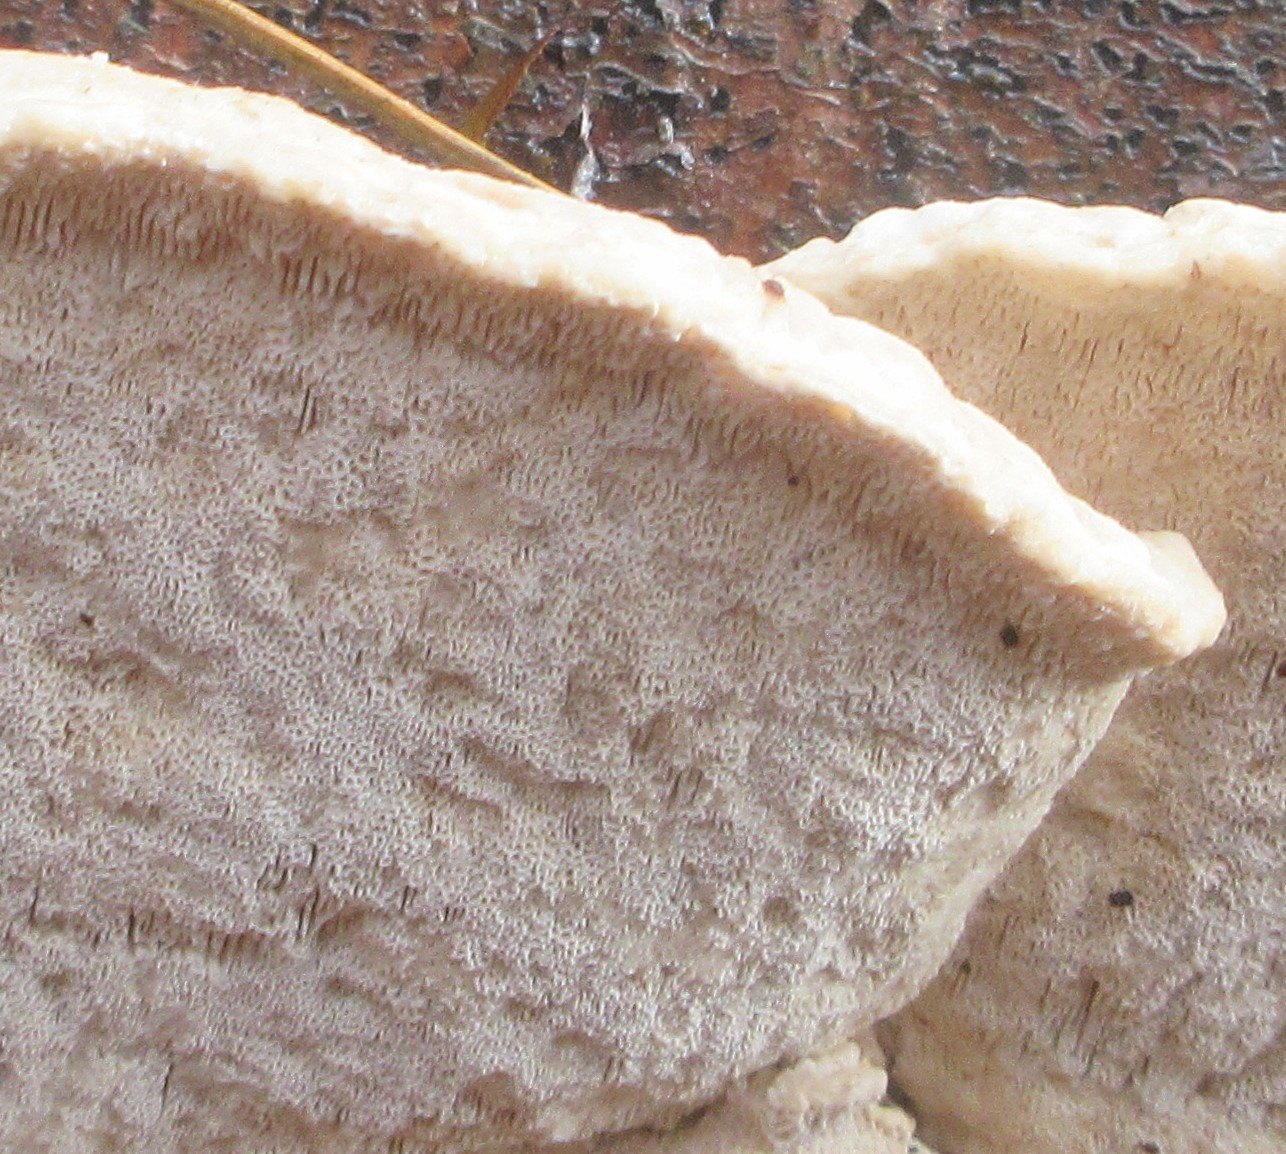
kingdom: Fungi
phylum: Basidiomycota
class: Agaricomycetes
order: Polyporales
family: Polyporaceae
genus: Trametes
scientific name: Trametes
